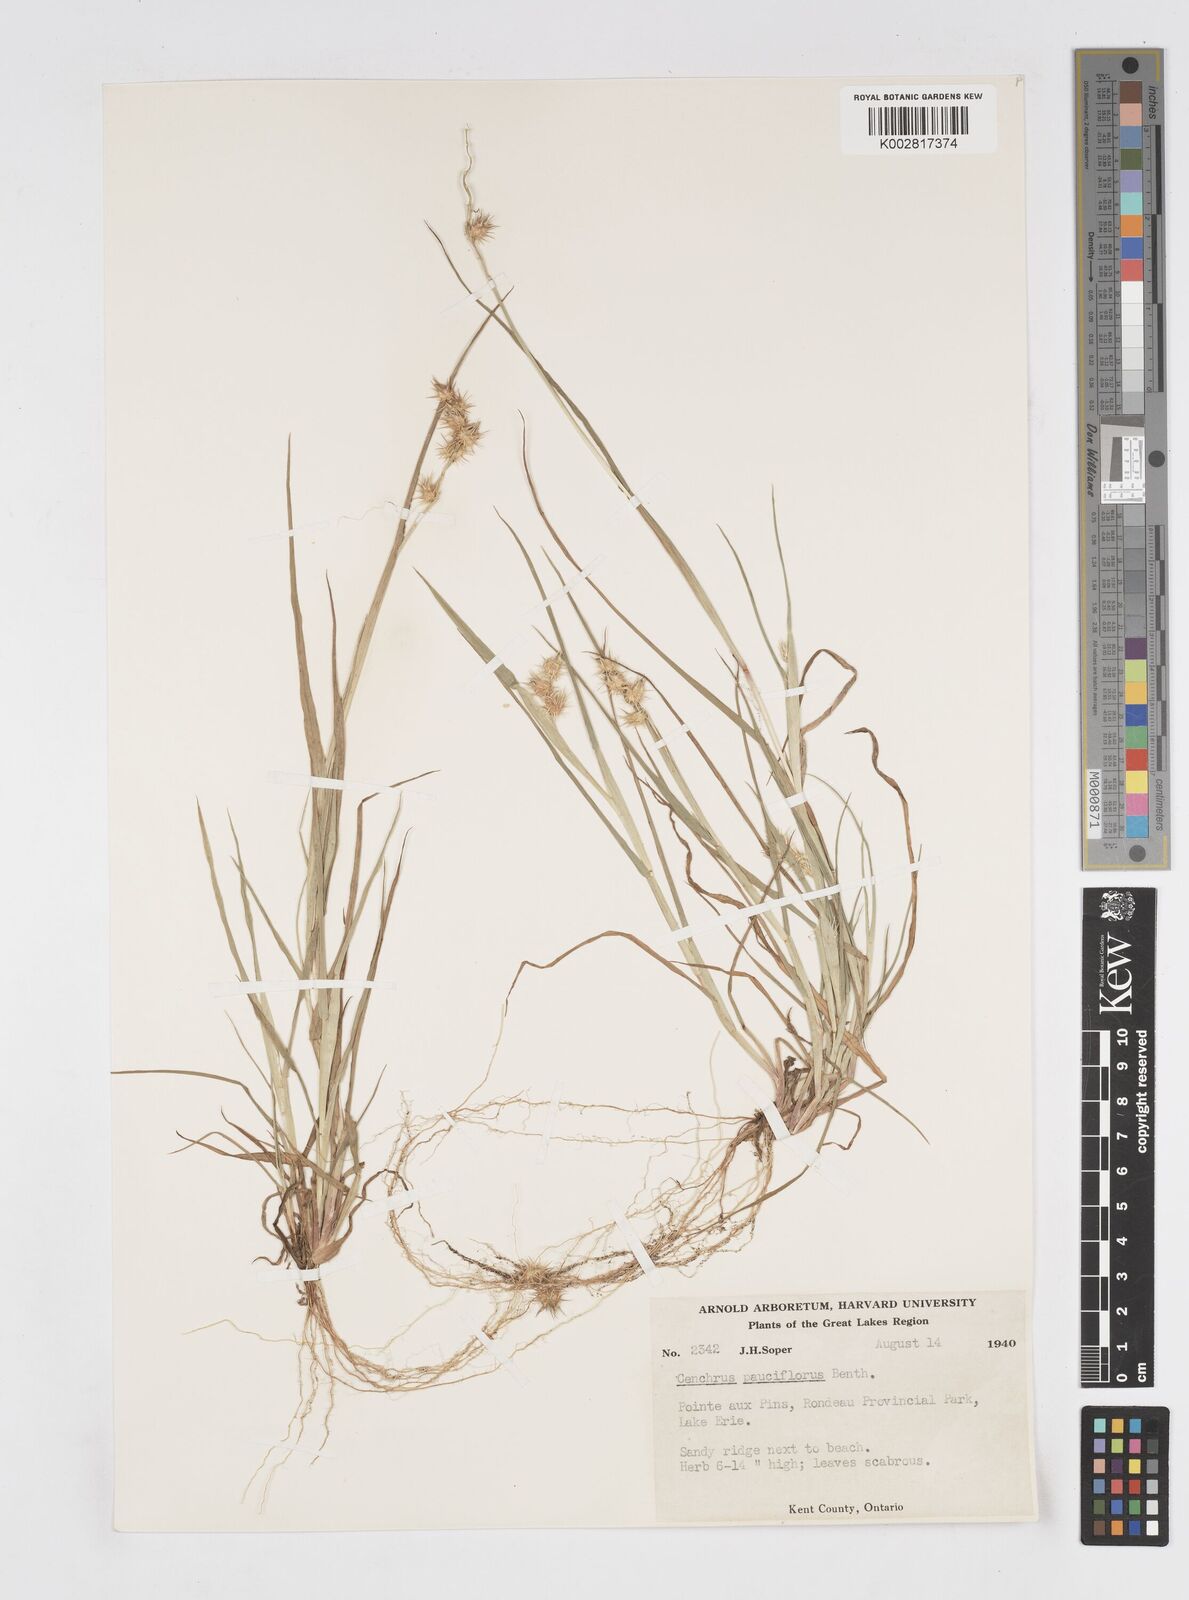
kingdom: Plantae
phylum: Tracheophyta
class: Liliopsida
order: Poales
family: Poaceae
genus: Cenchrus
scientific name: Cenchrus longispinus
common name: Mat sandbur
